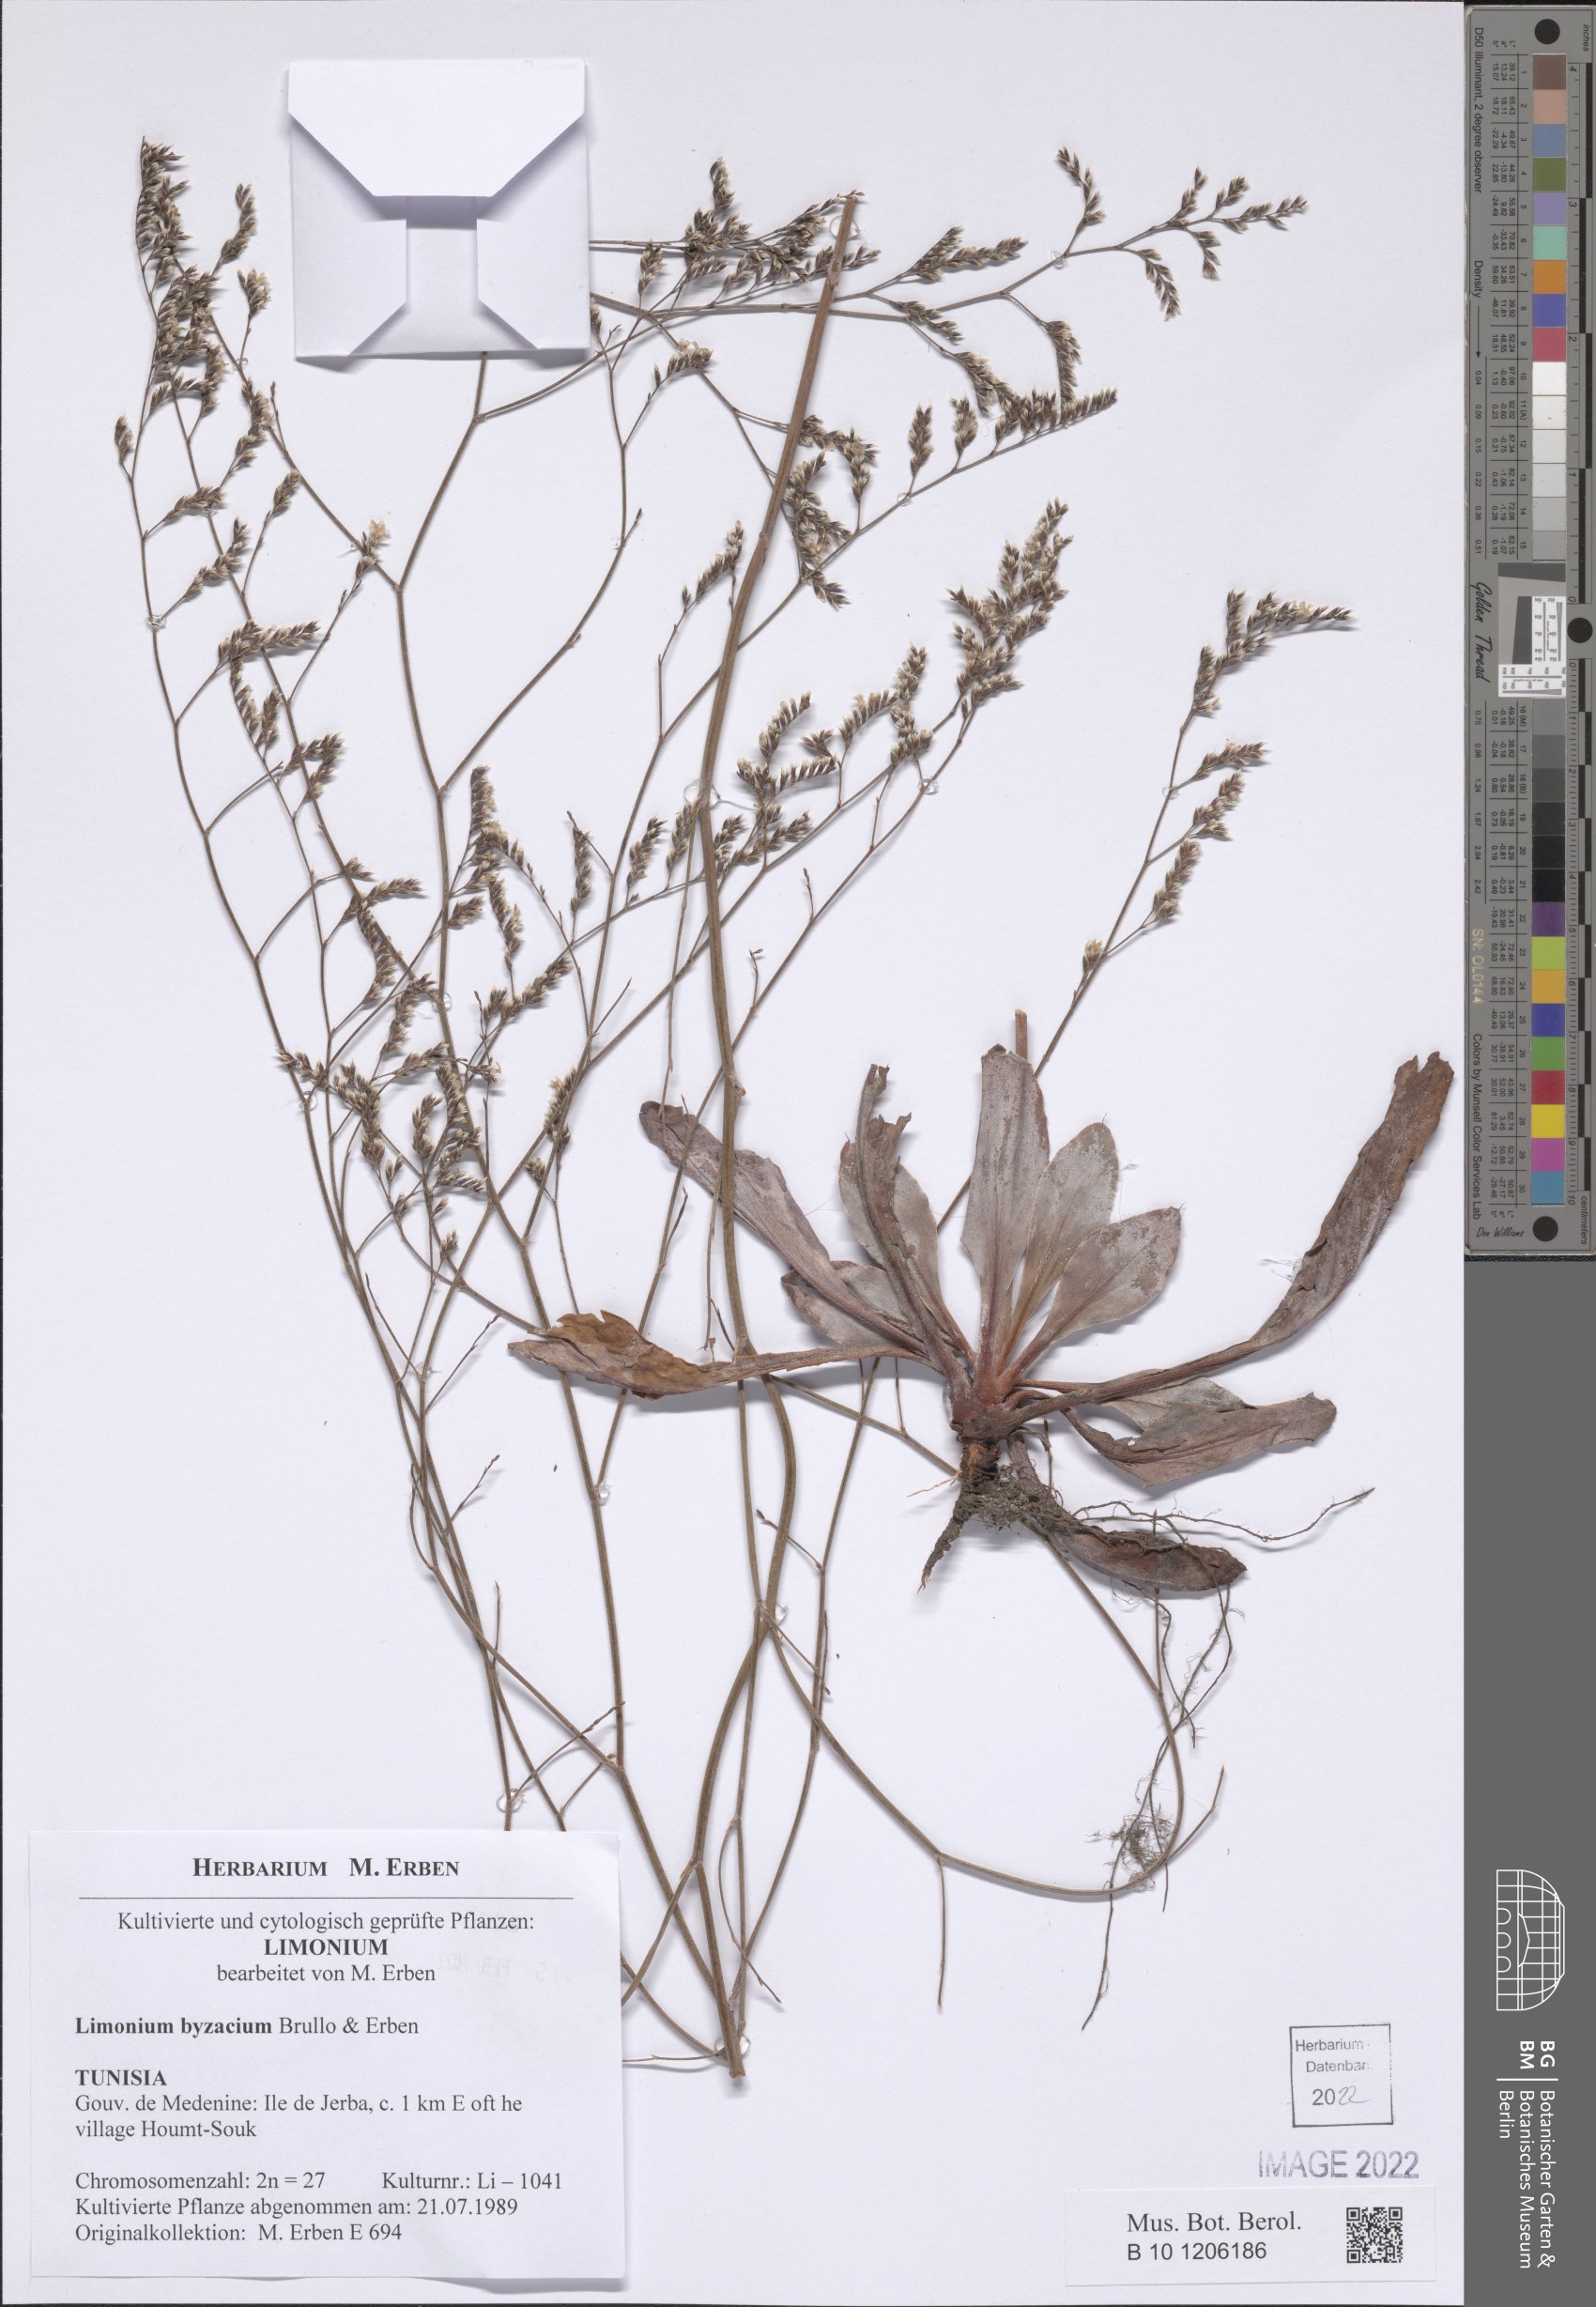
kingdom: Plantae
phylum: Tracheophyta
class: Magnoliopsida
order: Caryophyllales
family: Plumbaginaceae
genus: Limonium
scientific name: Limonium byzacium
